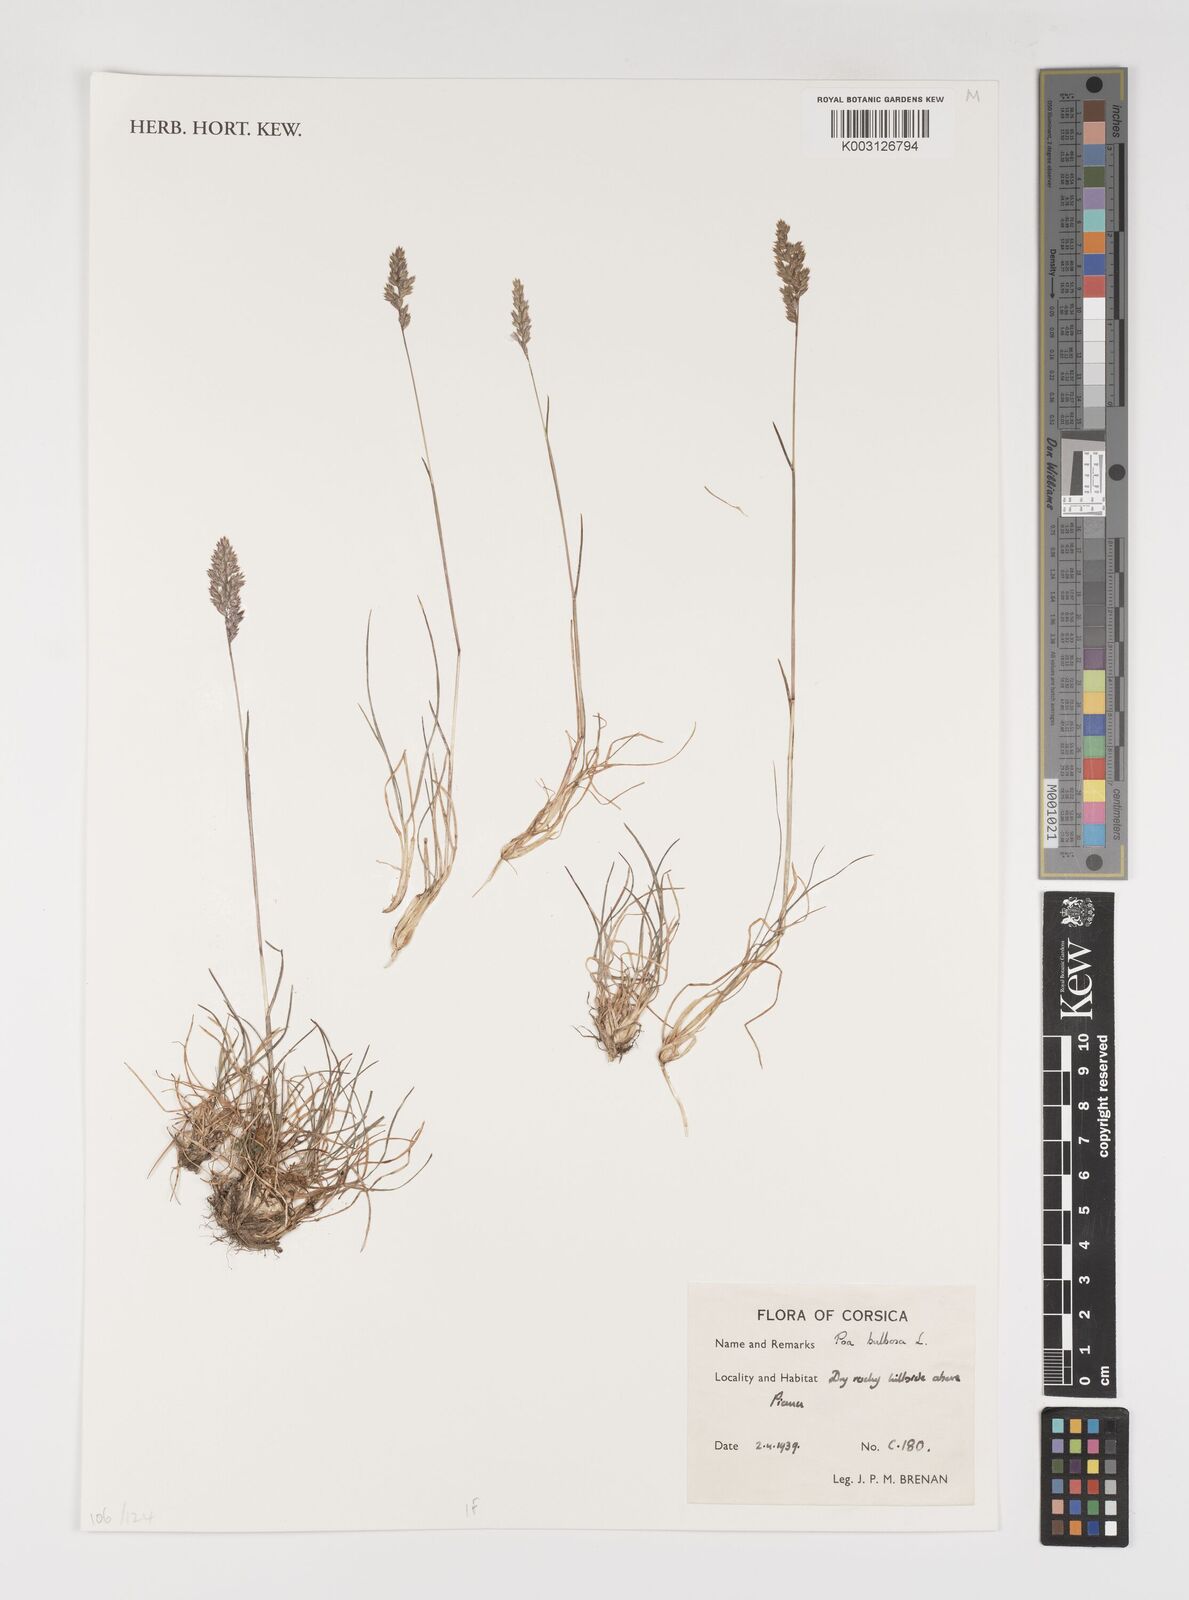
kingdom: Plantae
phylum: Tracheophyta
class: Liliopsida
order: Poales
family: Poaceae
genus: Poa
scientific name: Poa bulbosa
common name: Bulbous bluegrass
